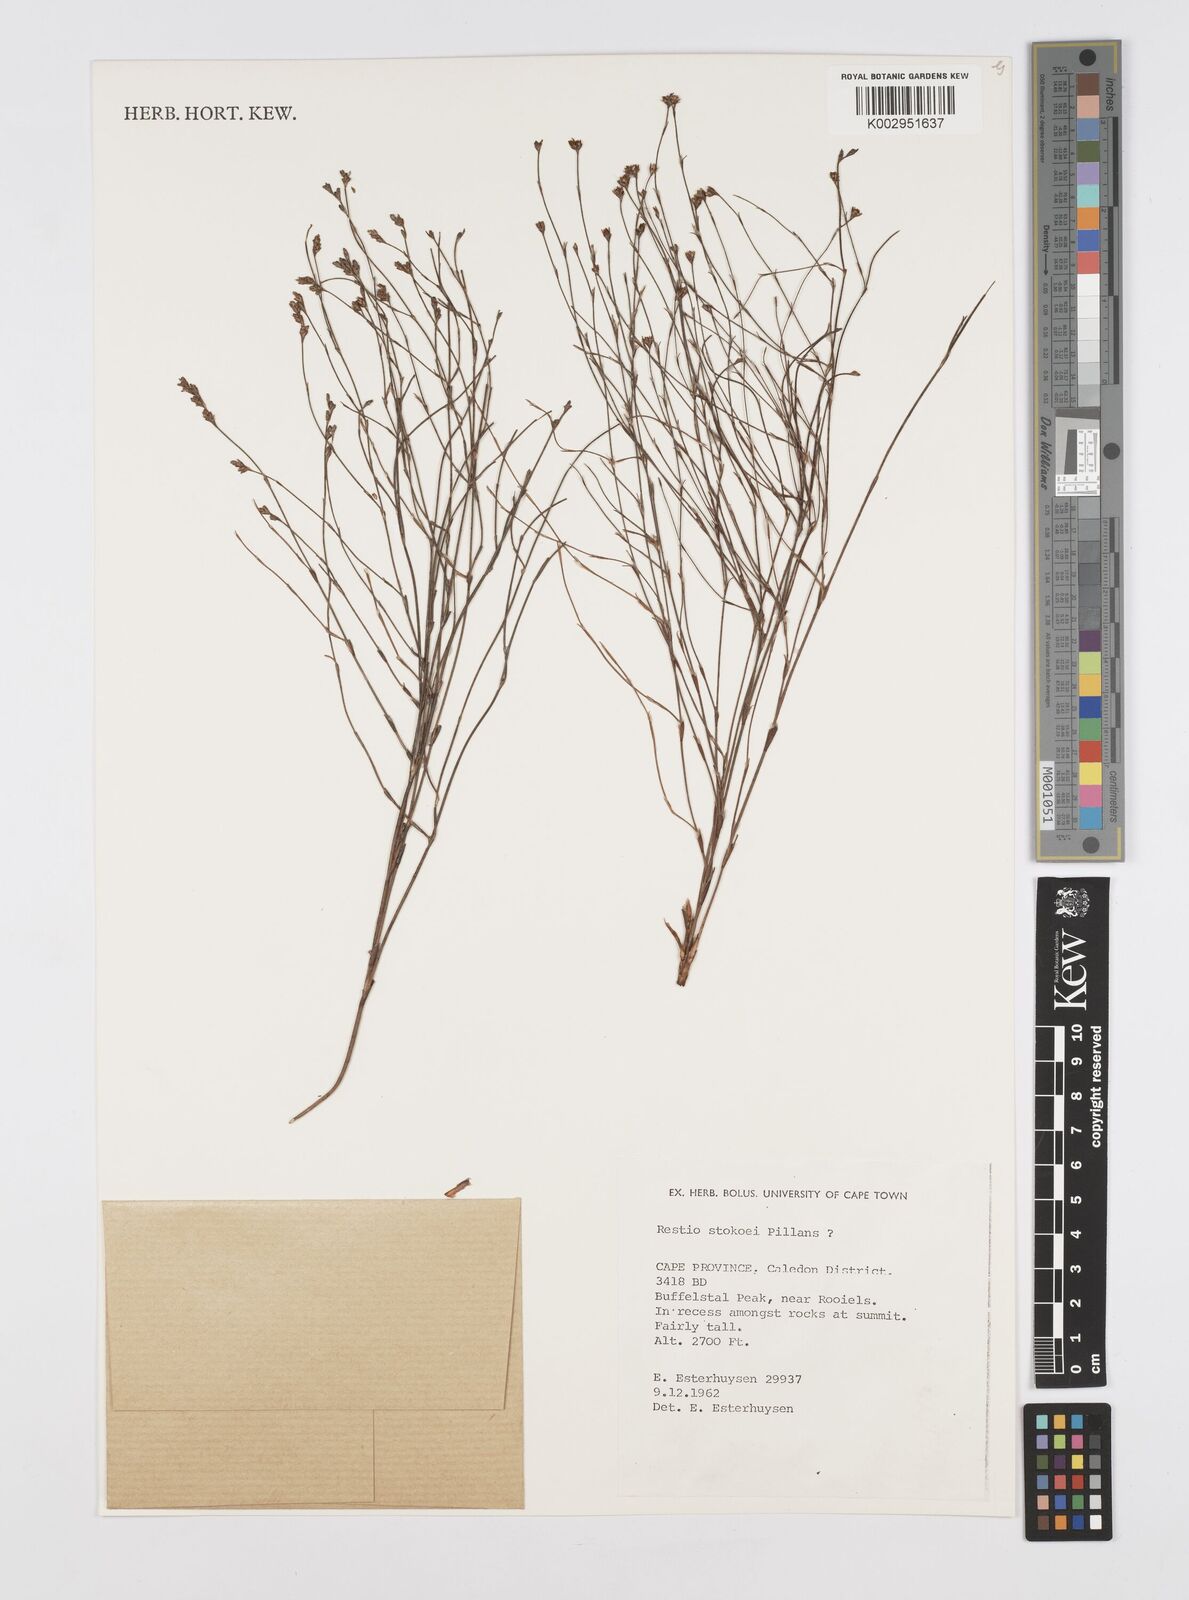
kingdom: Plantae
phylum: Tracheophyta
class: Liliopsida
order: Poales
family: Restionaceae
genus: Restio
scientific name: Restio stokoei
